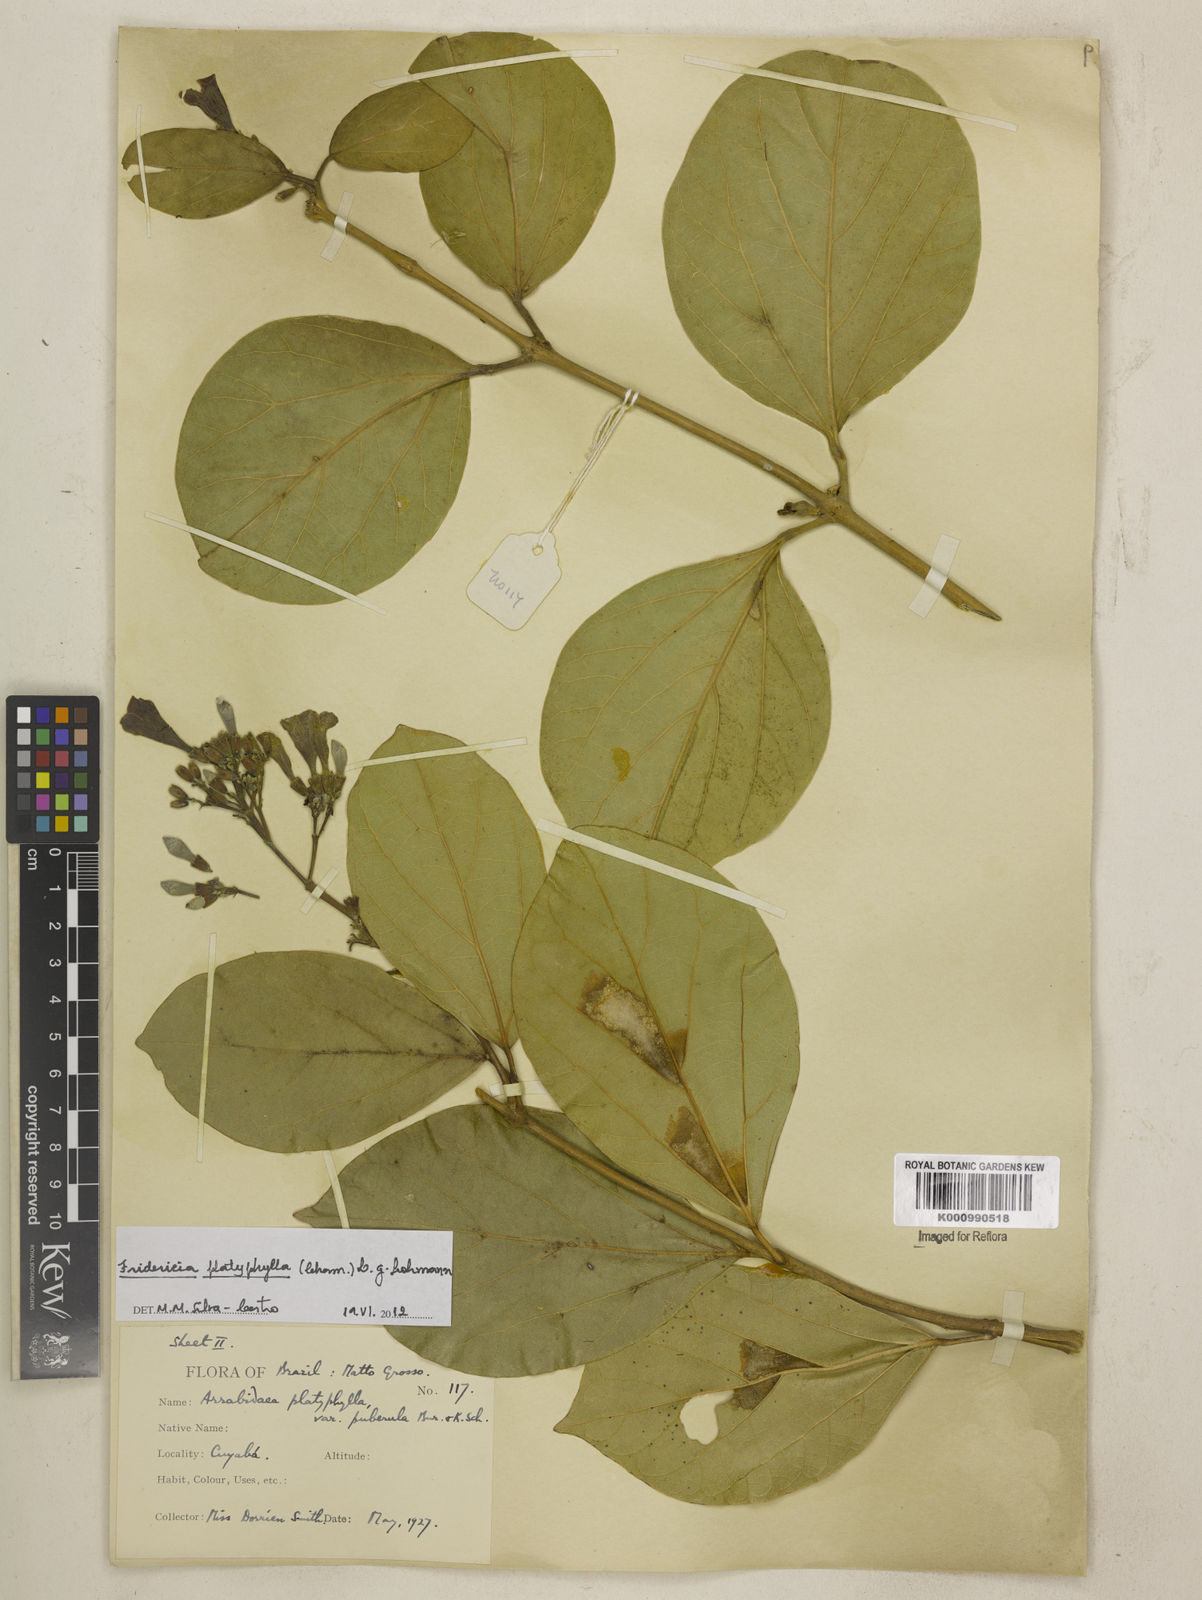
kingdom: Plantae
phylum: Tracheophyta
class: Magnoliopsida
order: Lamiales
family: Bignoniaceae
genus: Fridericia
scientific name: Fridericia platyphylla
